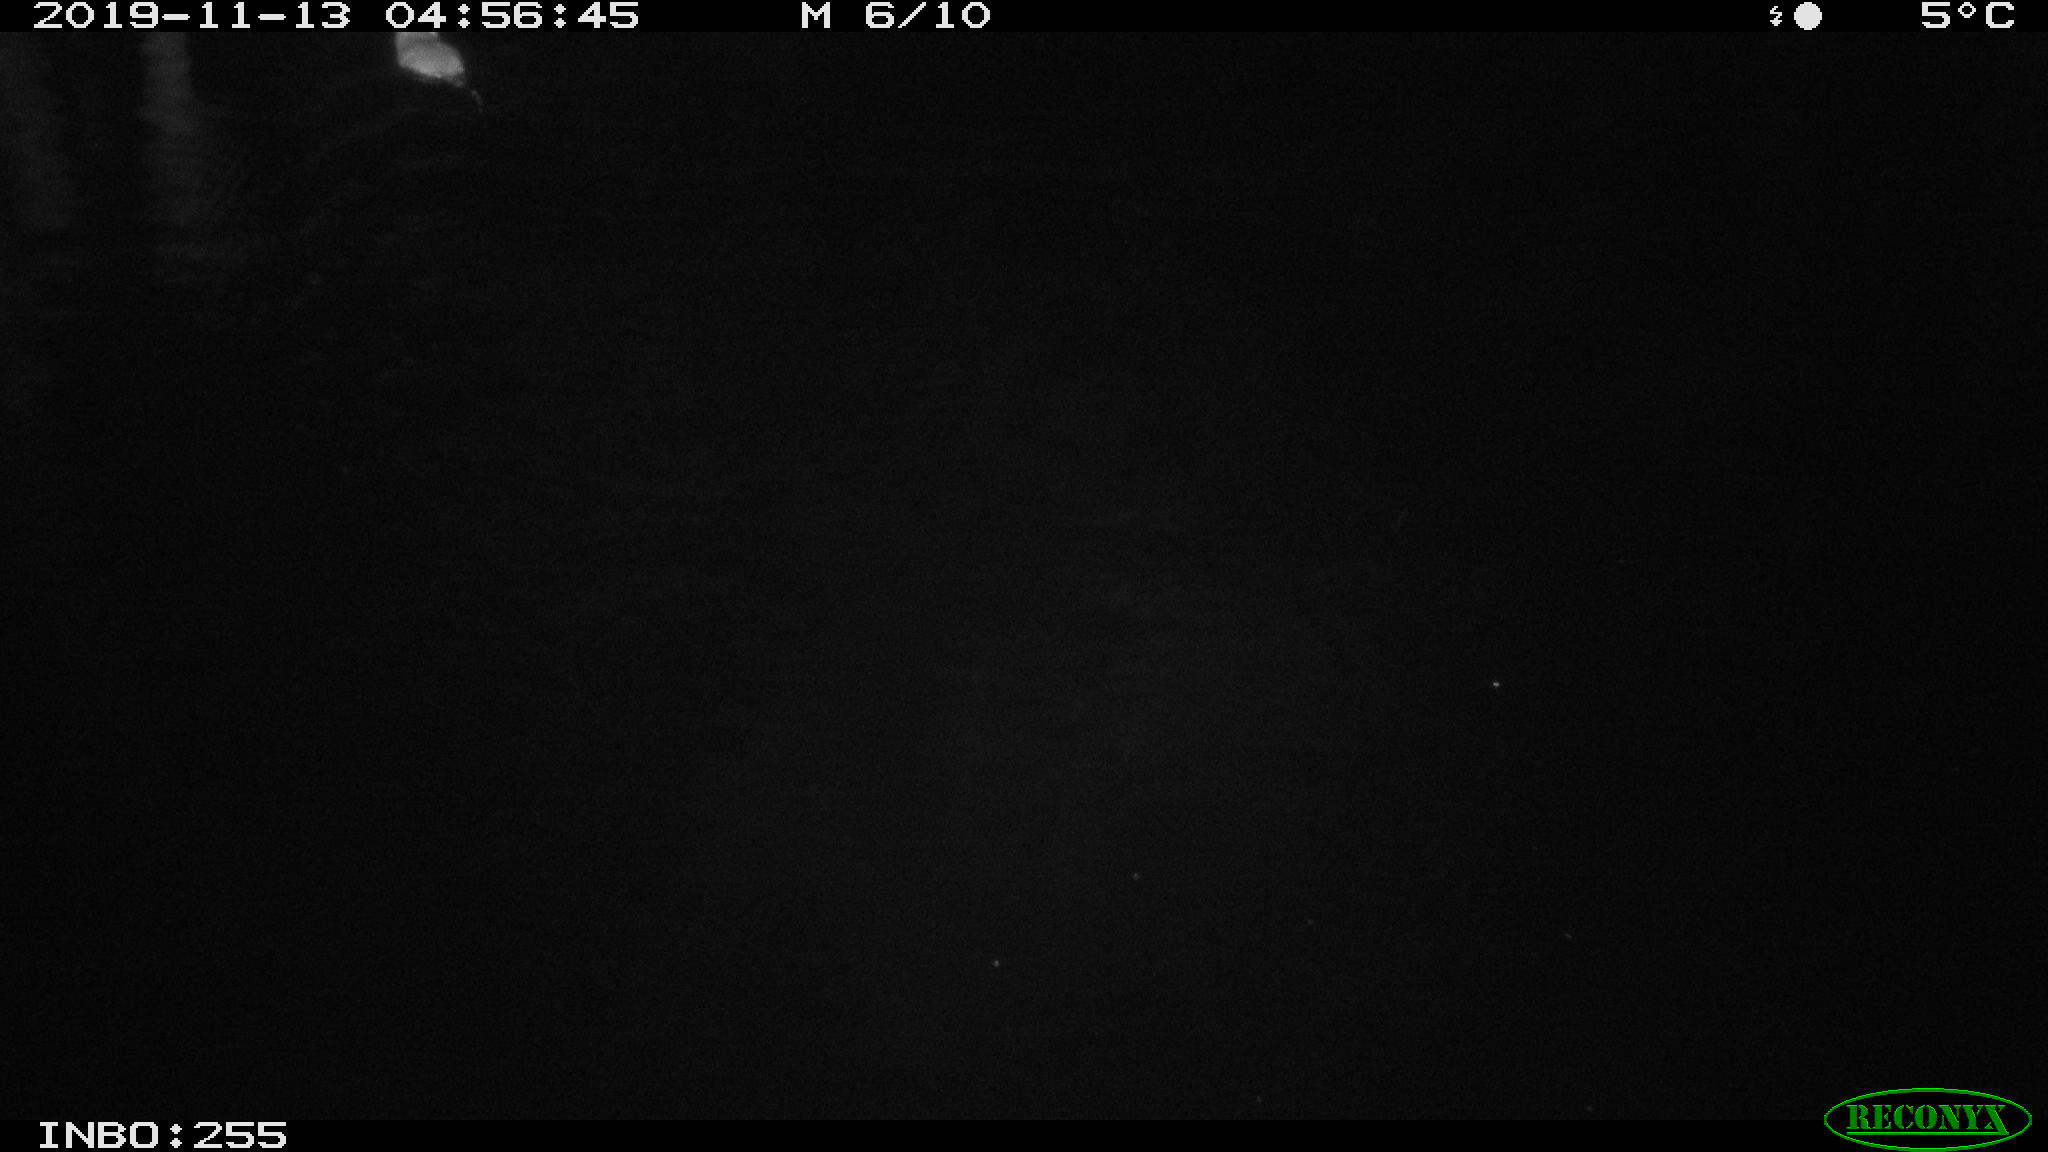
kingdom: Animalia
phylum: Chordata
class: Mammalia
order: Rodentia
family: Muridae
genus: Rattus
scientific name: Rattus norvegicus
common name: Brown rat
